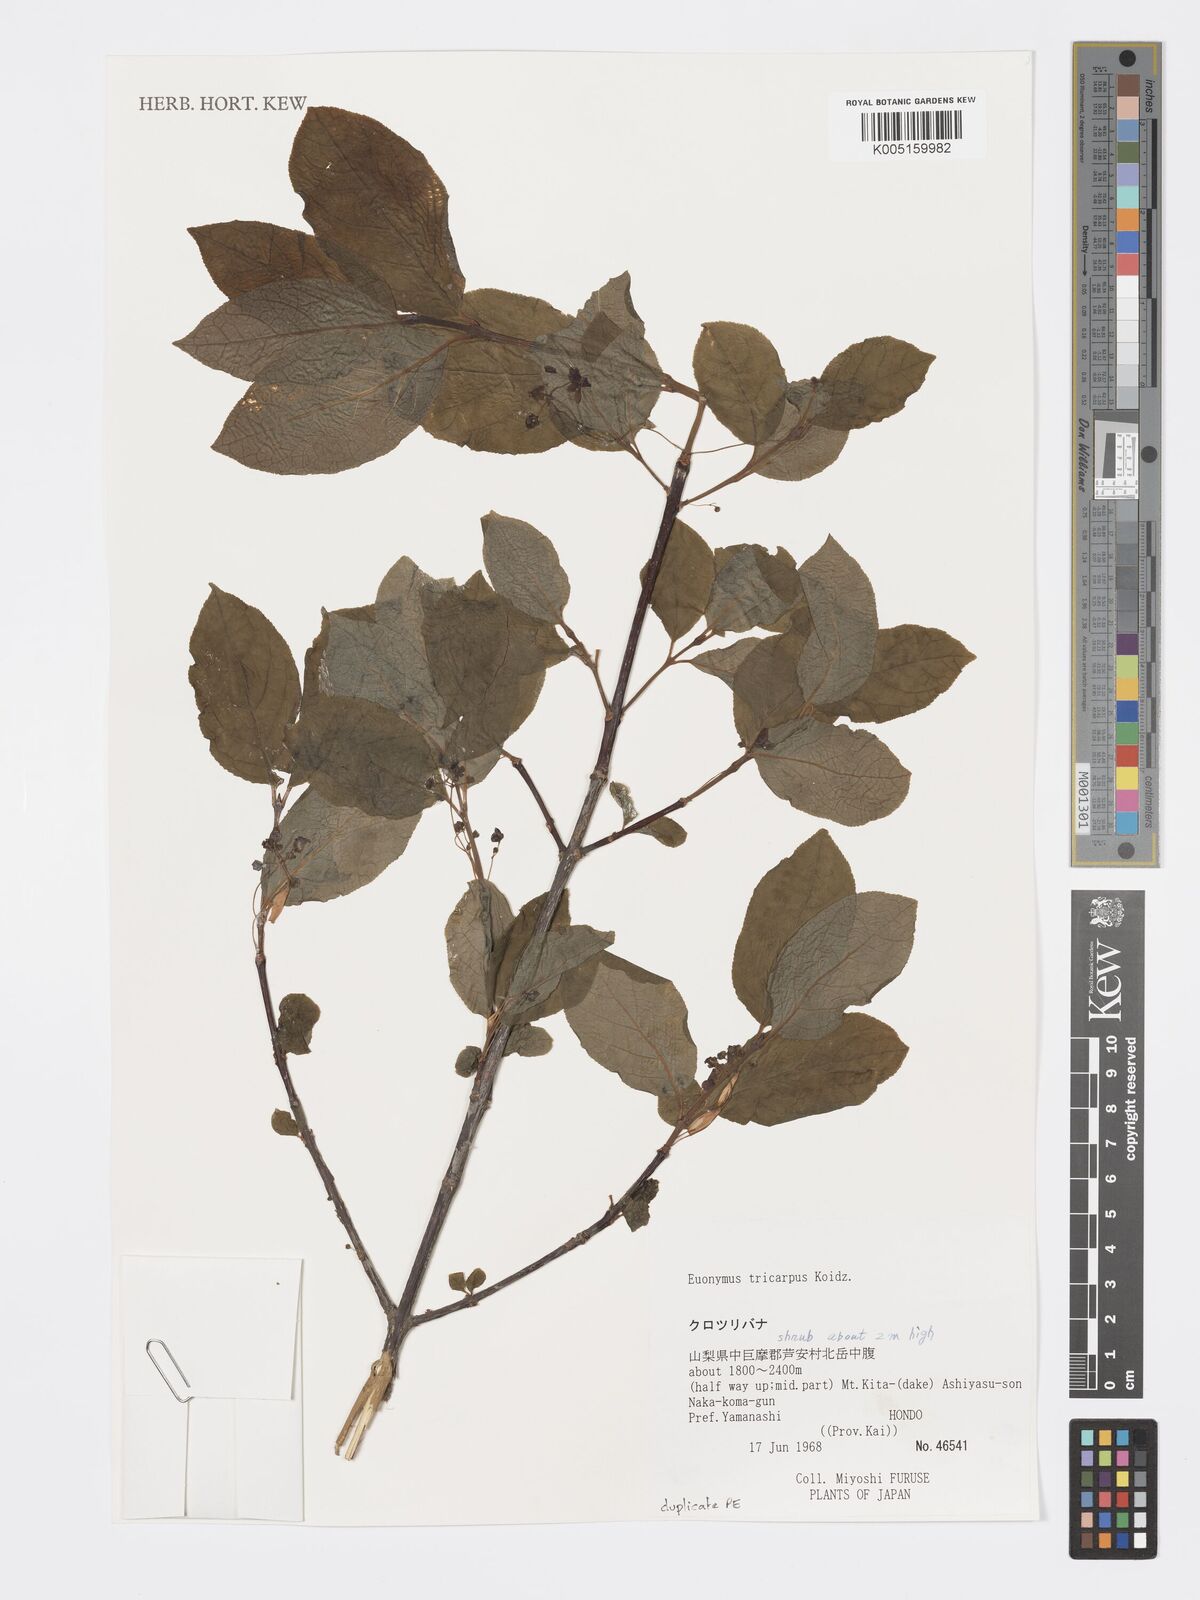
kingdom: Plantae
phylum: Tracheophyta
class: Magnoliopsida
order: Celastrales
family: Celastraceae
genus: Euonymus
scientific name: Euonymus sachalinensis
